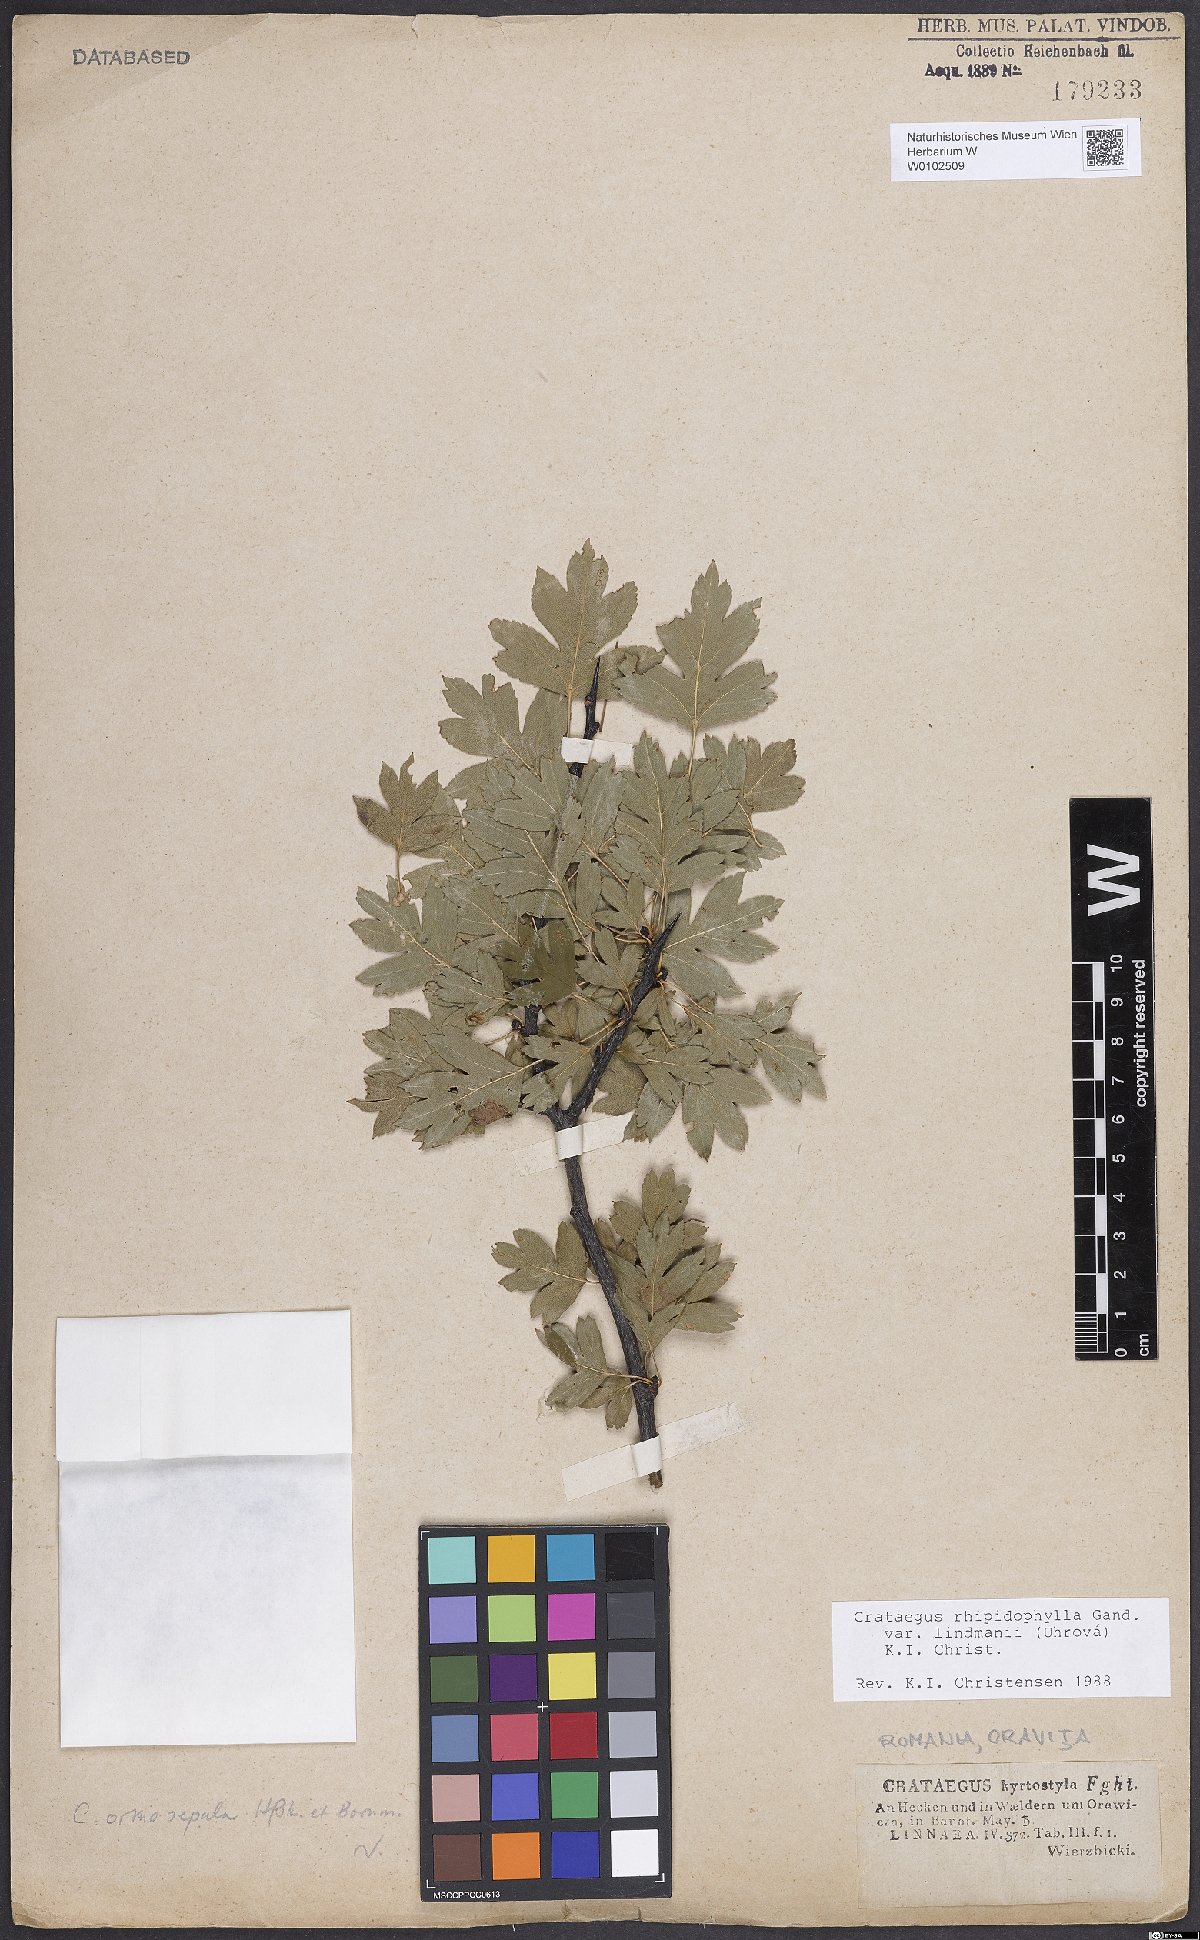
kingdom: Plantae
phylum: Tracheophyta
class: Magnoliopsida
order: Rosales
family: Rosaceae
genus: Crataegus
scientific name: Crataegus lindmanii
